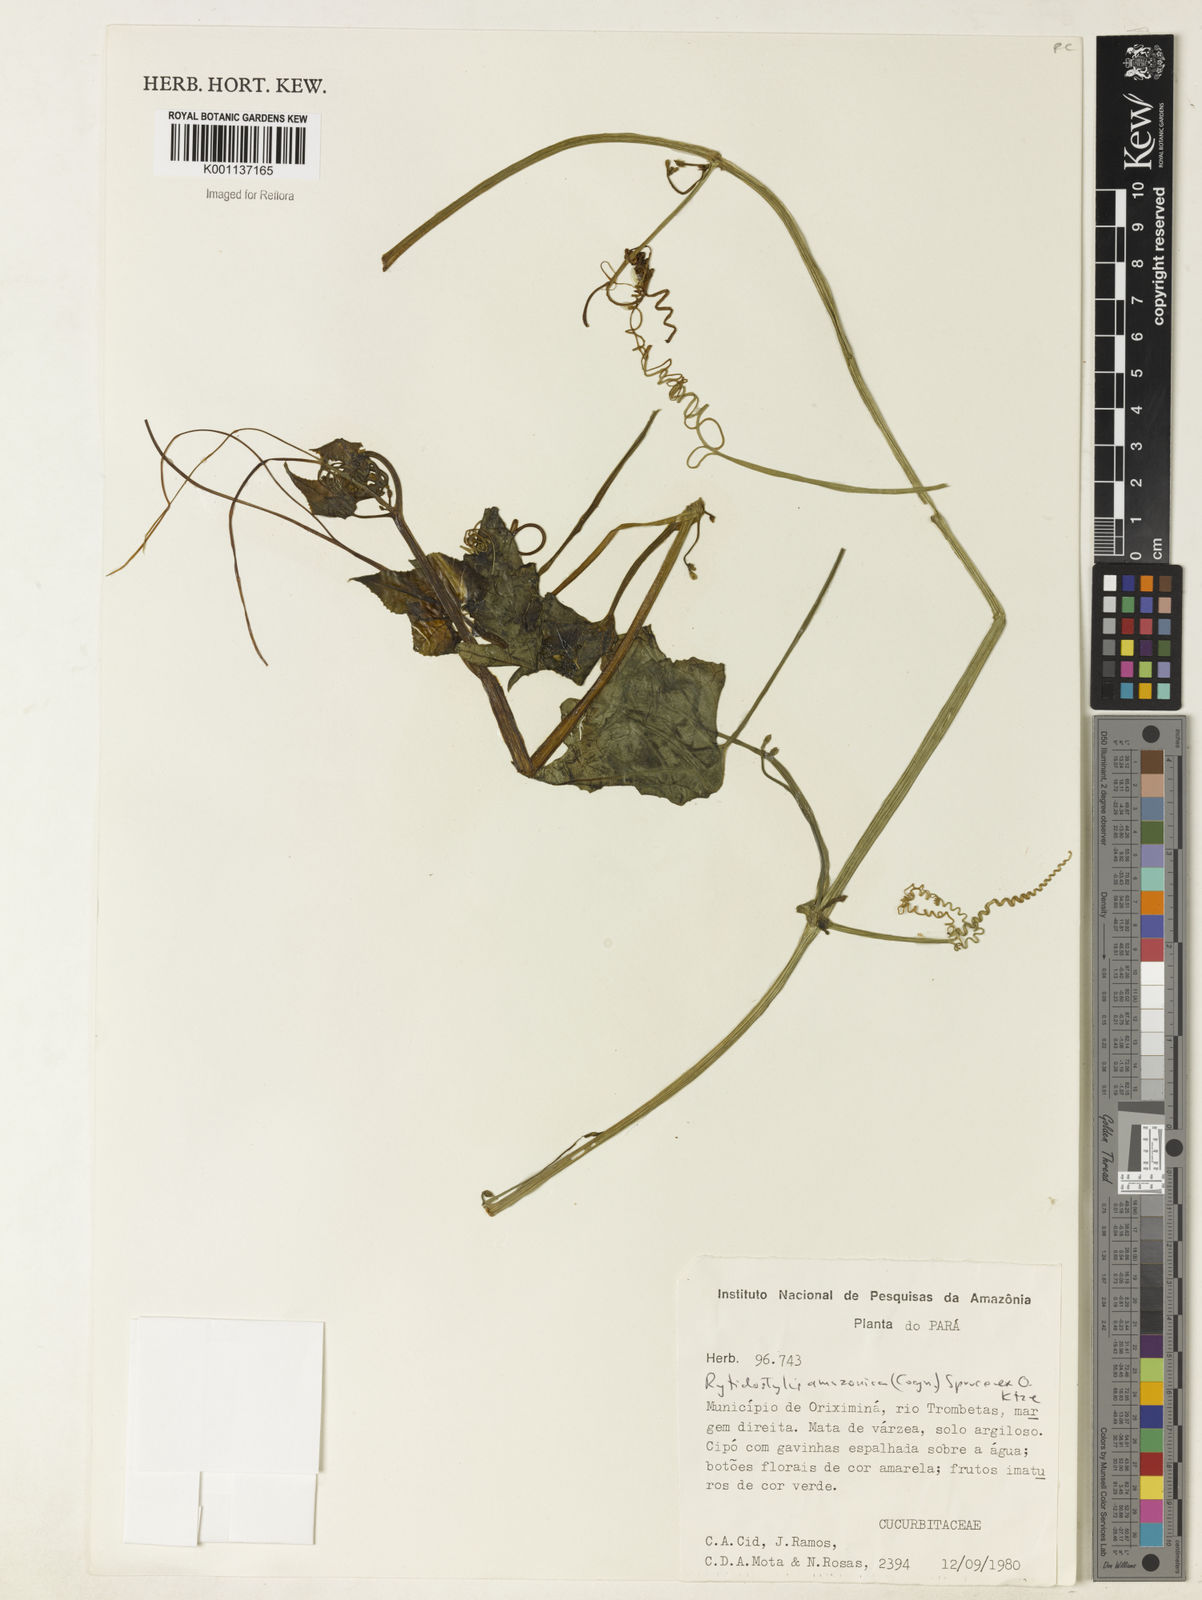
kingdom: Plantae
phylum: Tracheophyta
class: Magnoliopsida
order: Cucurbitales
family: Cucurbitaceae
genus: Cyclanthera
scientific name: Cyclanthera carthagenensis
